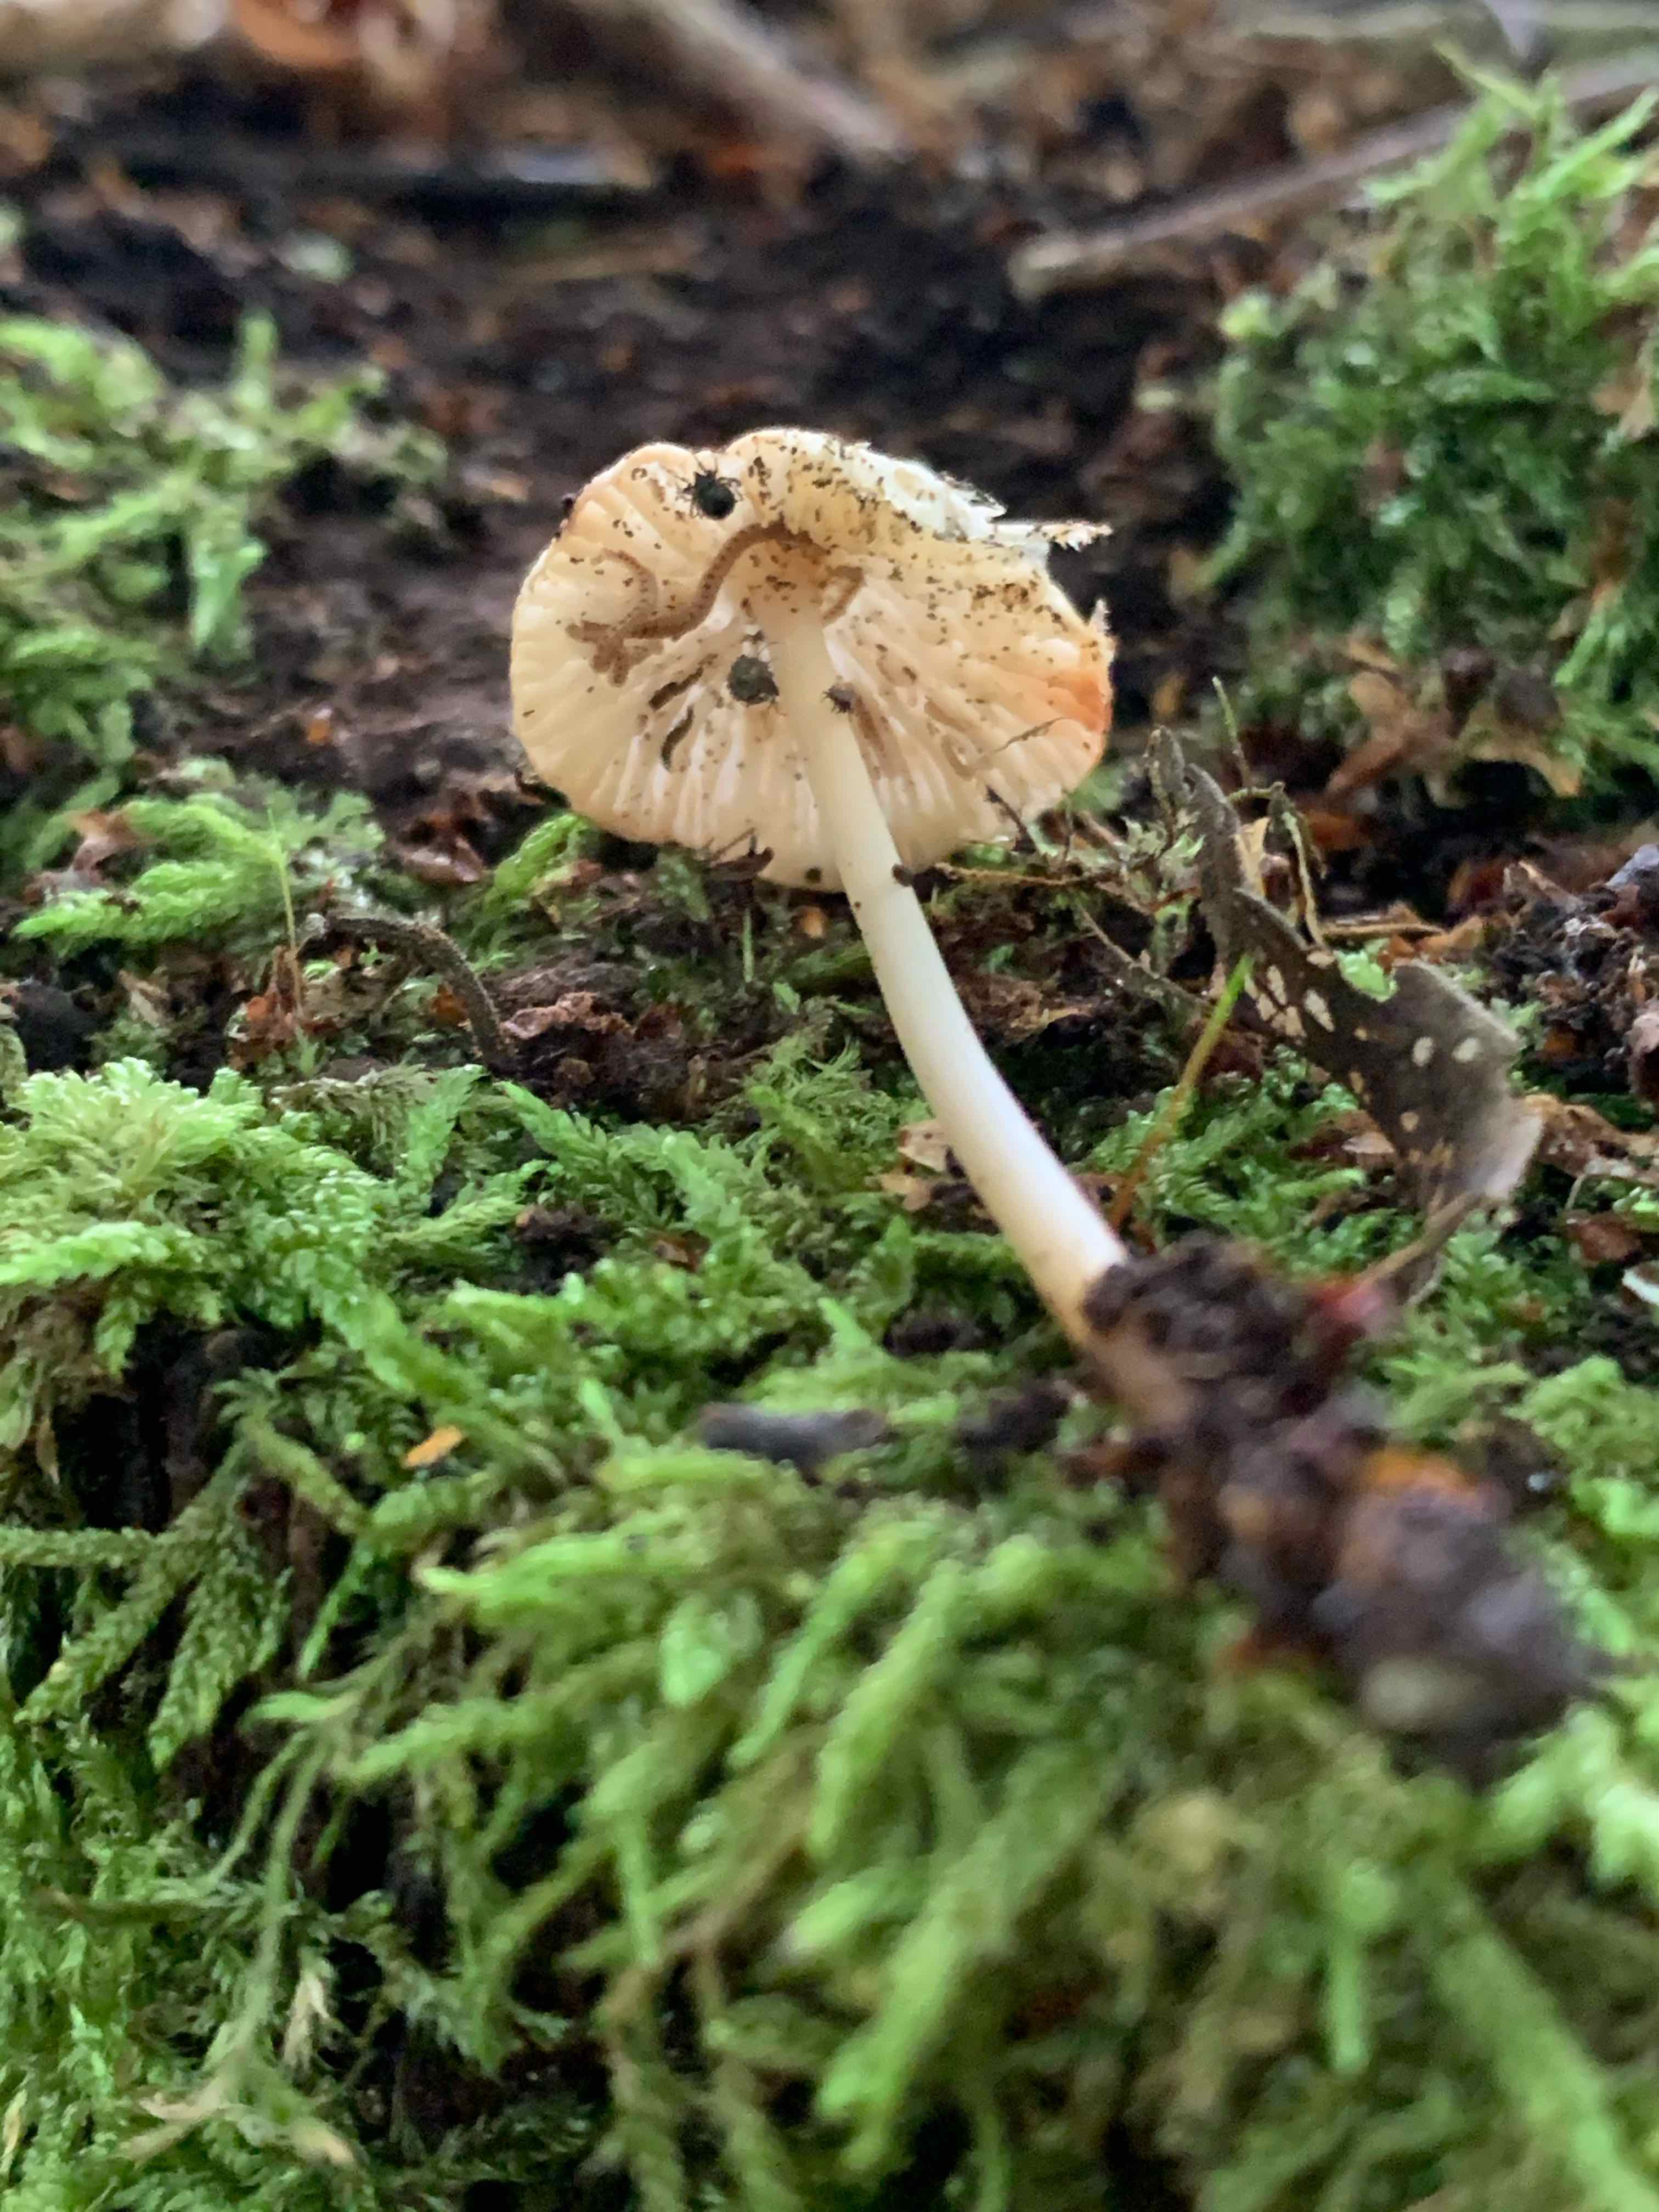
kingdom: Fungi
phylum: Basidiomycota
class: Agaricomycetes
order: Agaricales
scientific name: Agaricales
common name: champignonordenen
